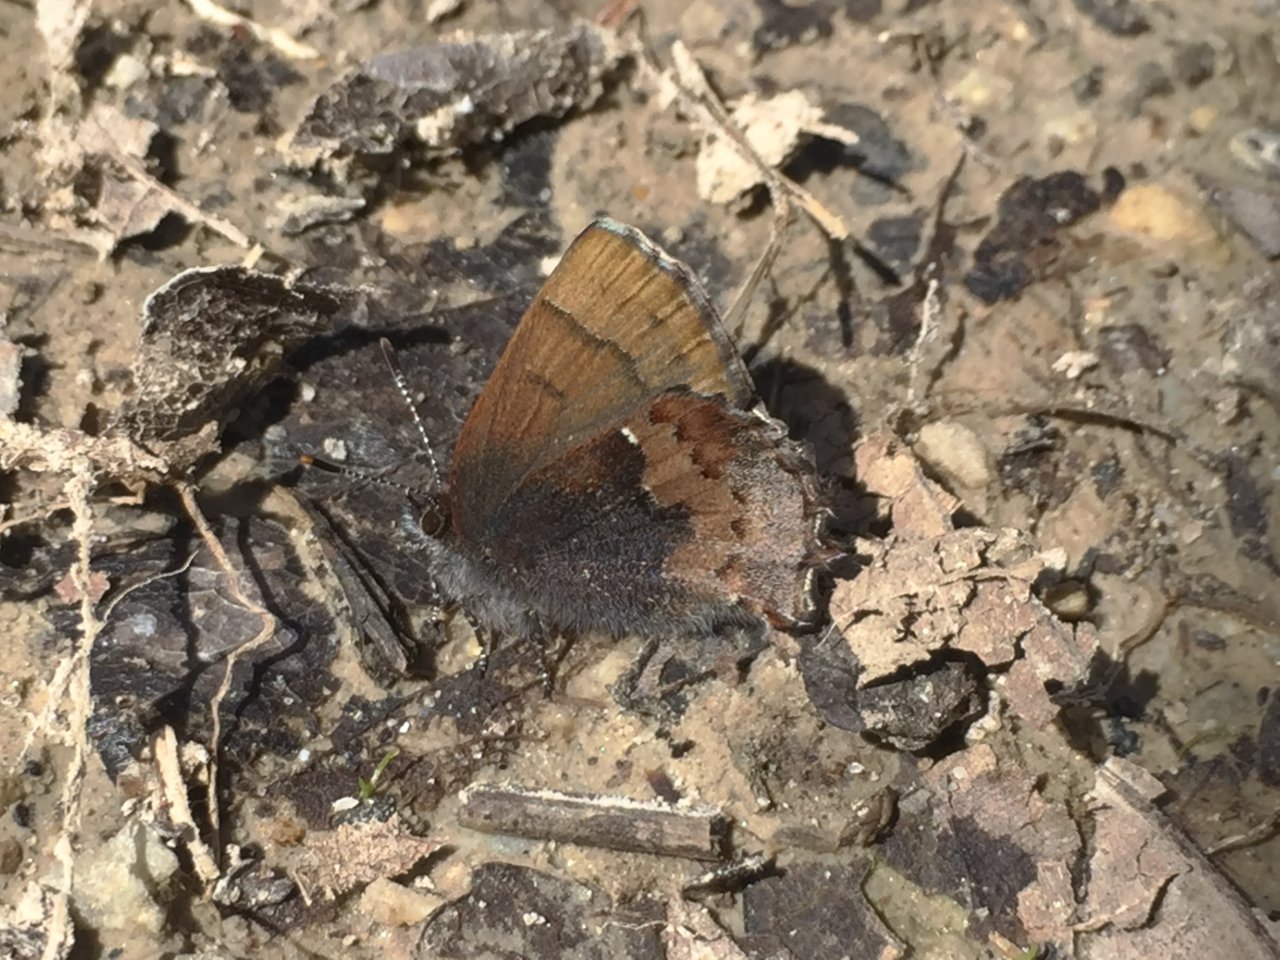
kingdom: Animalia
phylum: Arthropoda
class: Insecta
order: Lepidoptera
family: Lycaenidae
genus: Incisalia
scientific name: Incisalia henrici
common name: Henry's Elfin
